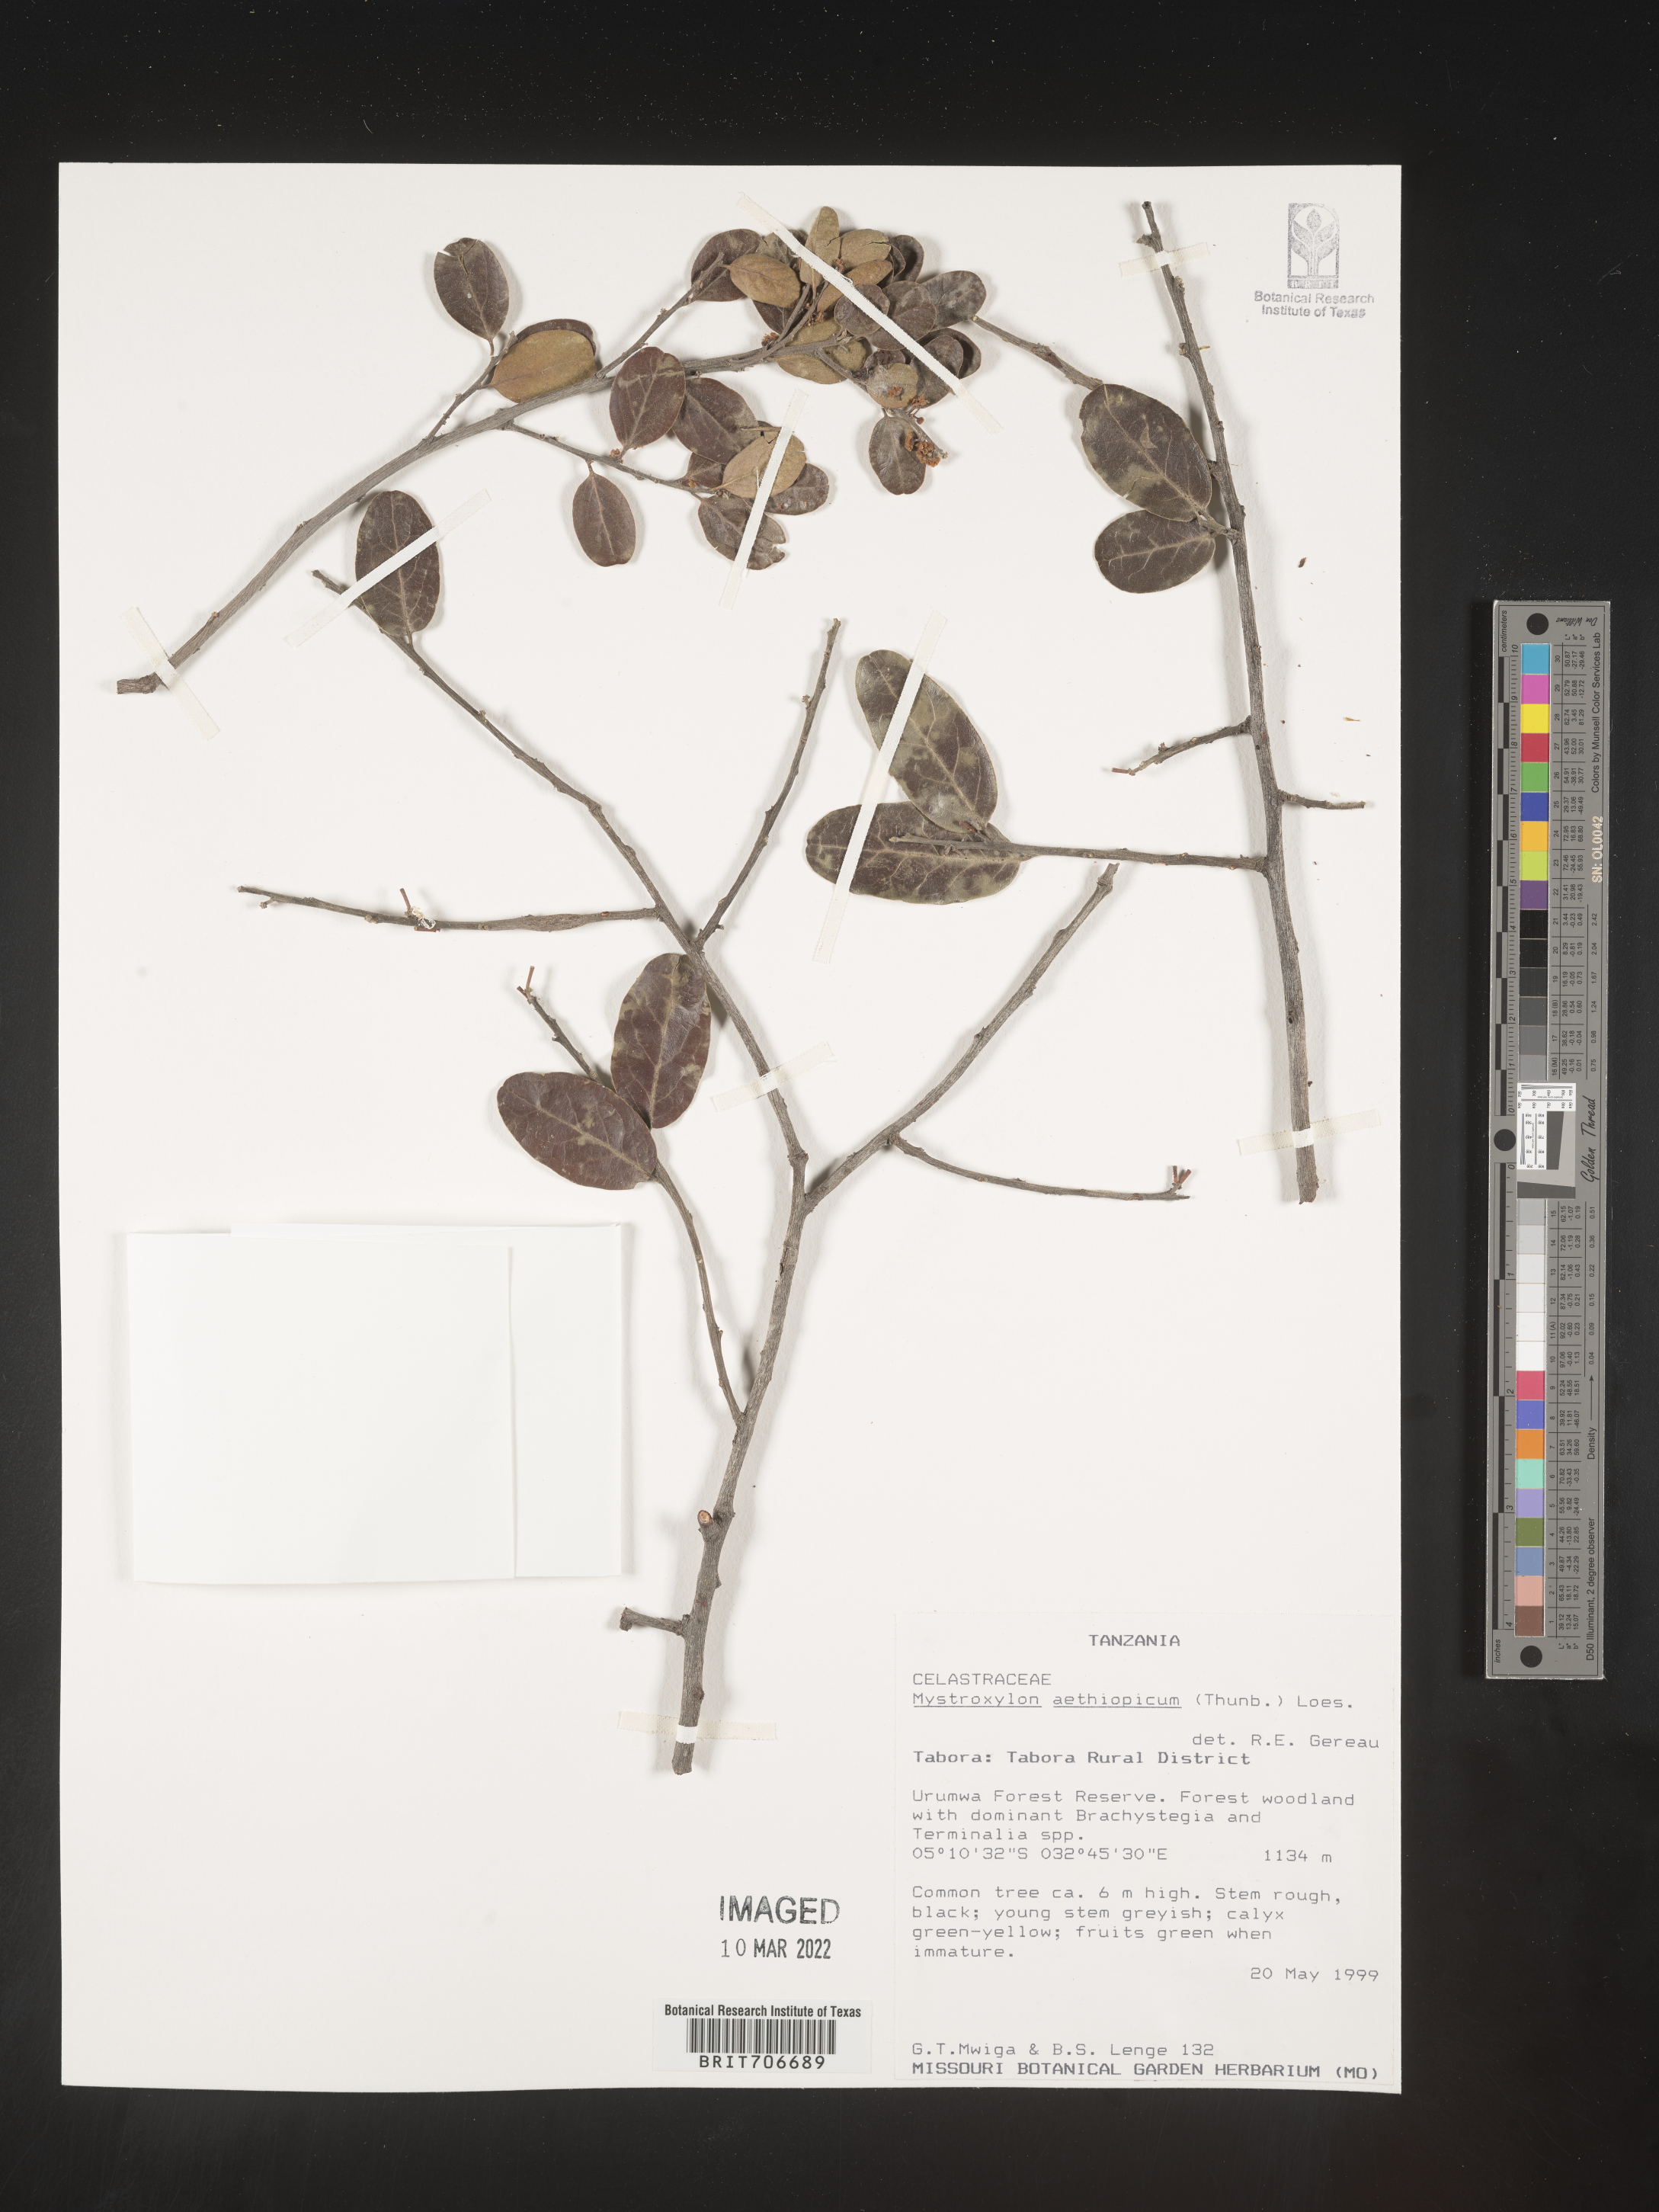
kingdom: Plantae
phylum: Tracheophyta
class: Magnoliopsida
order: Celastrales
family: Celastraceae
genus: Mystroxylon
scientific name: Mystroxylon
